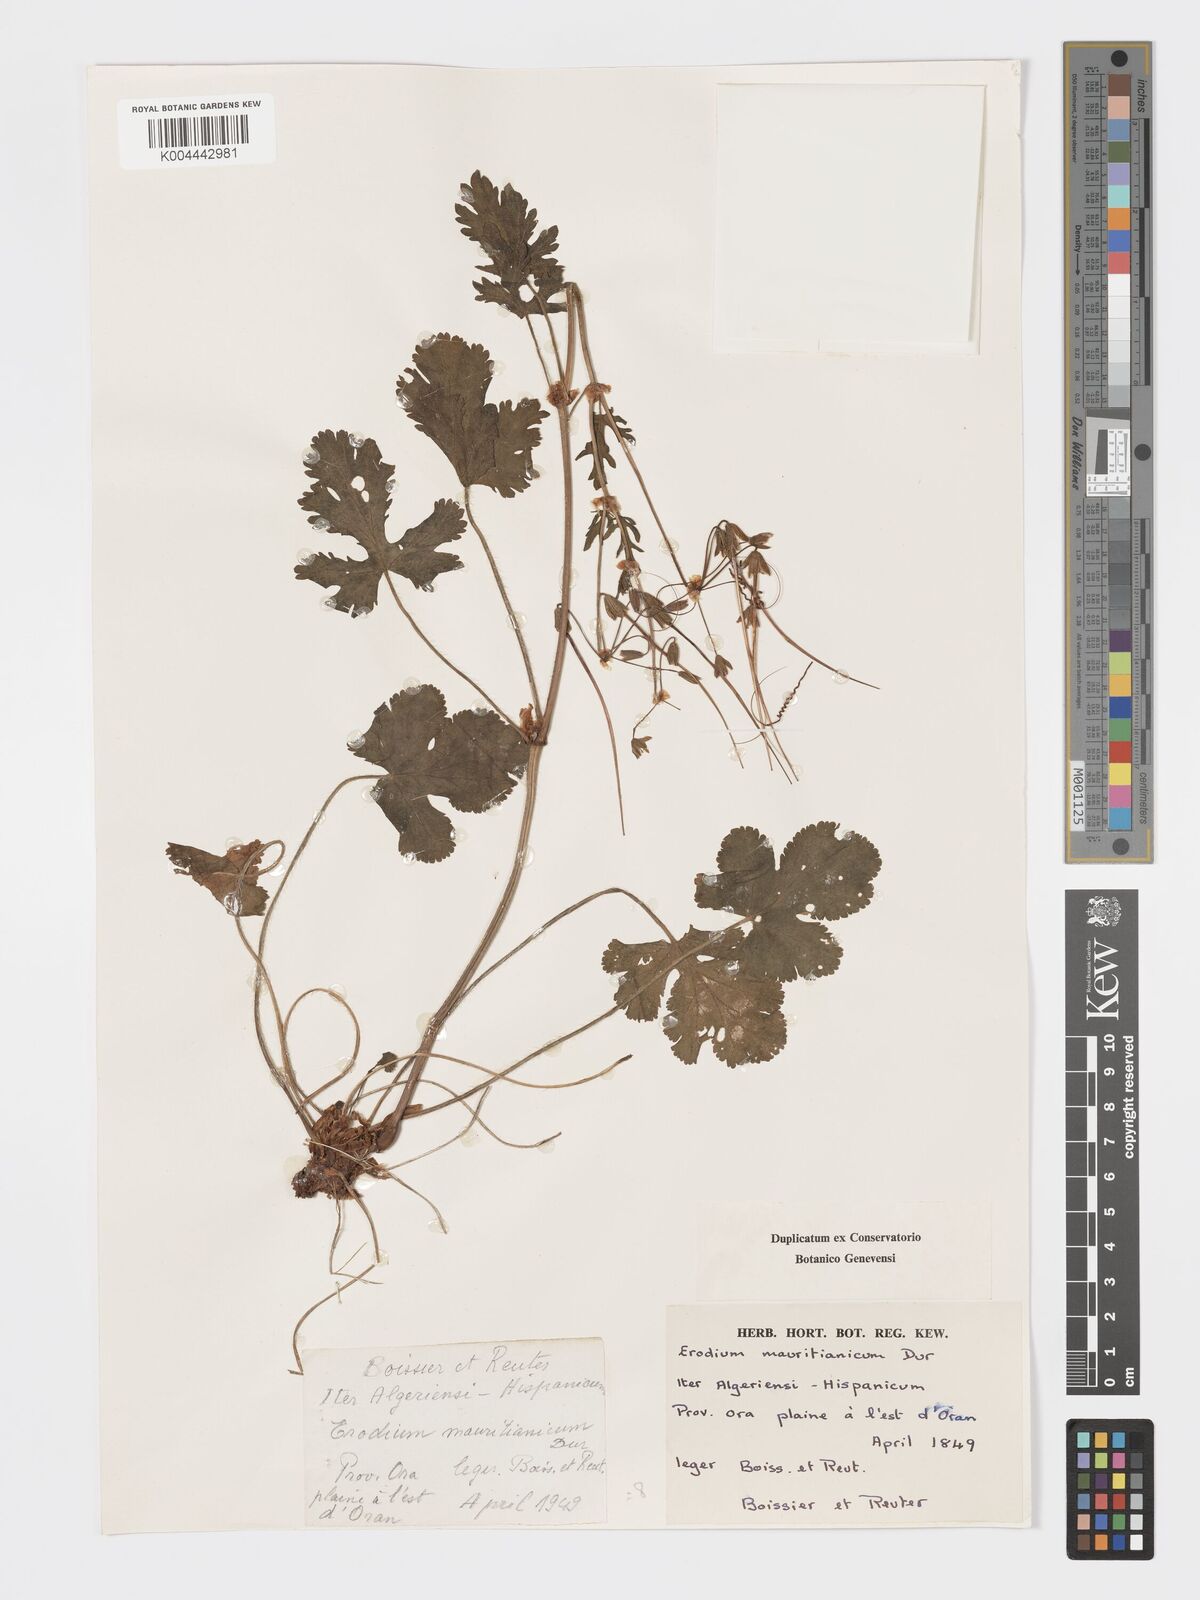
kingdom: Plantae
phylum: Tracheophyta
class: Magnoliopsida
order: Geraniales
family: Geraniaceae
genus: Erodium
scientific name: Erodium munbyanum
